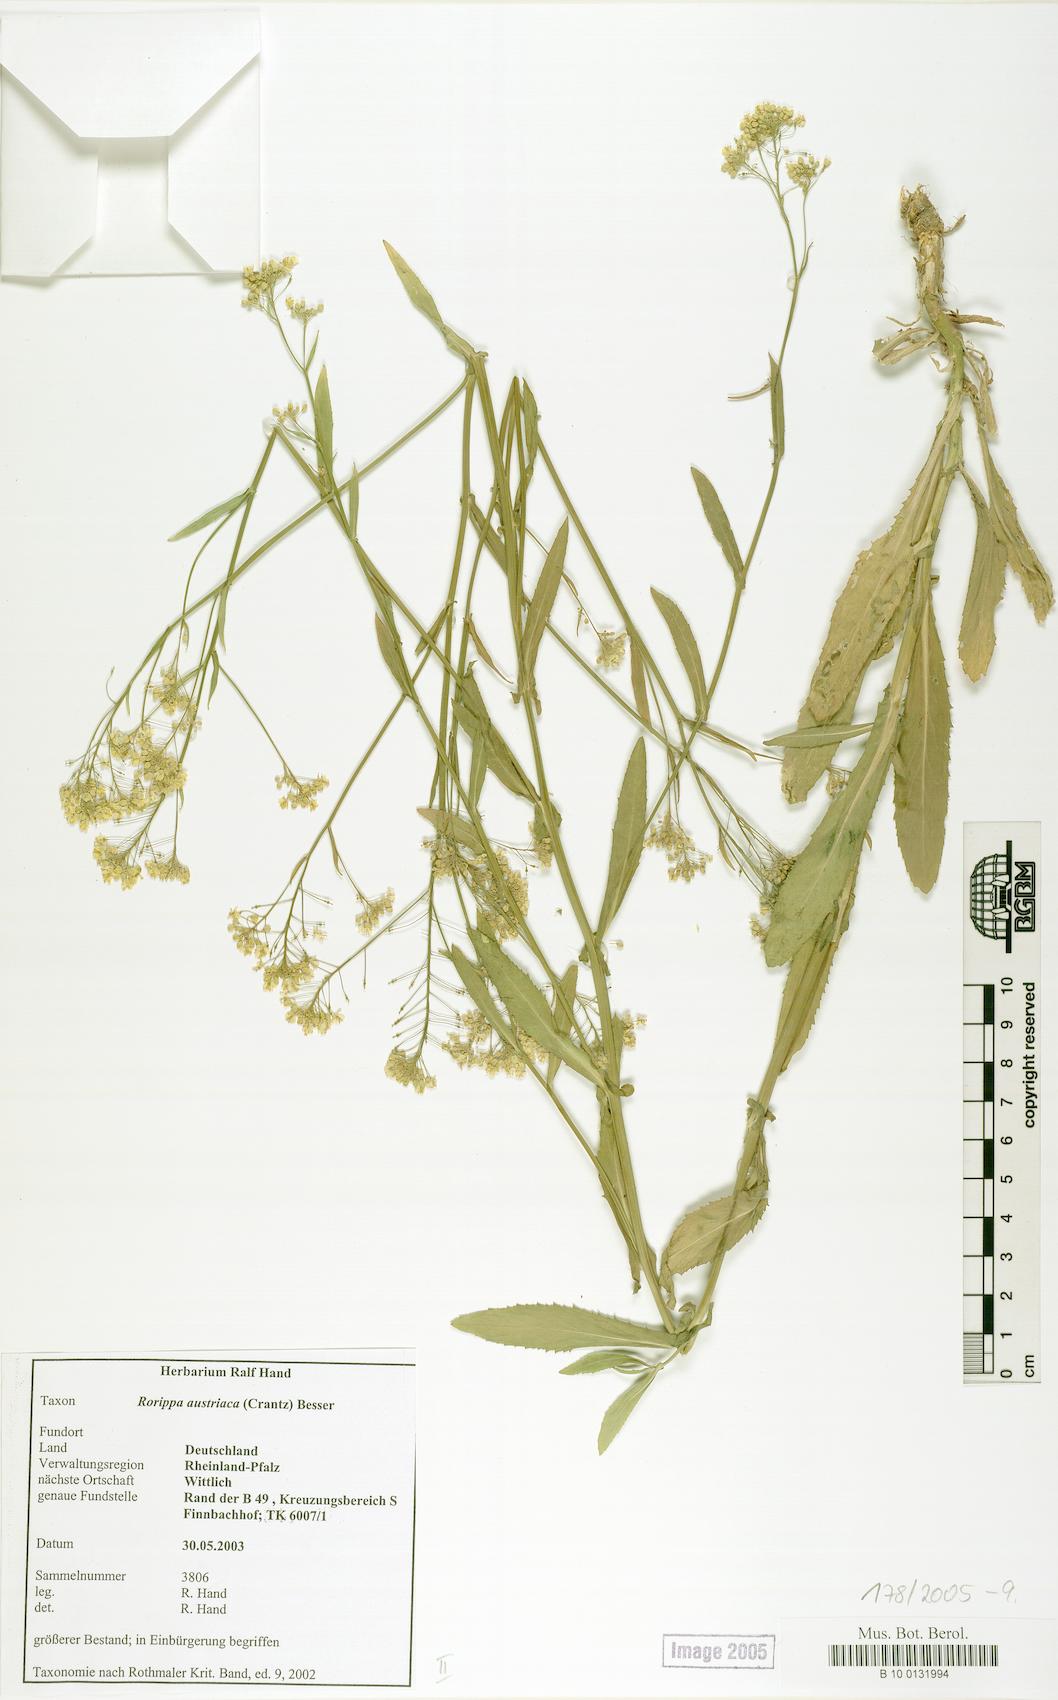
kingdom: Plantae
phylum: Tracheophyta
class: Magnoliopsida
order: Brassicales
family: Brassicaceae
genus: Rorippa
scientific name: Rorippa austriaca
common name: Austrian yellow-cress
